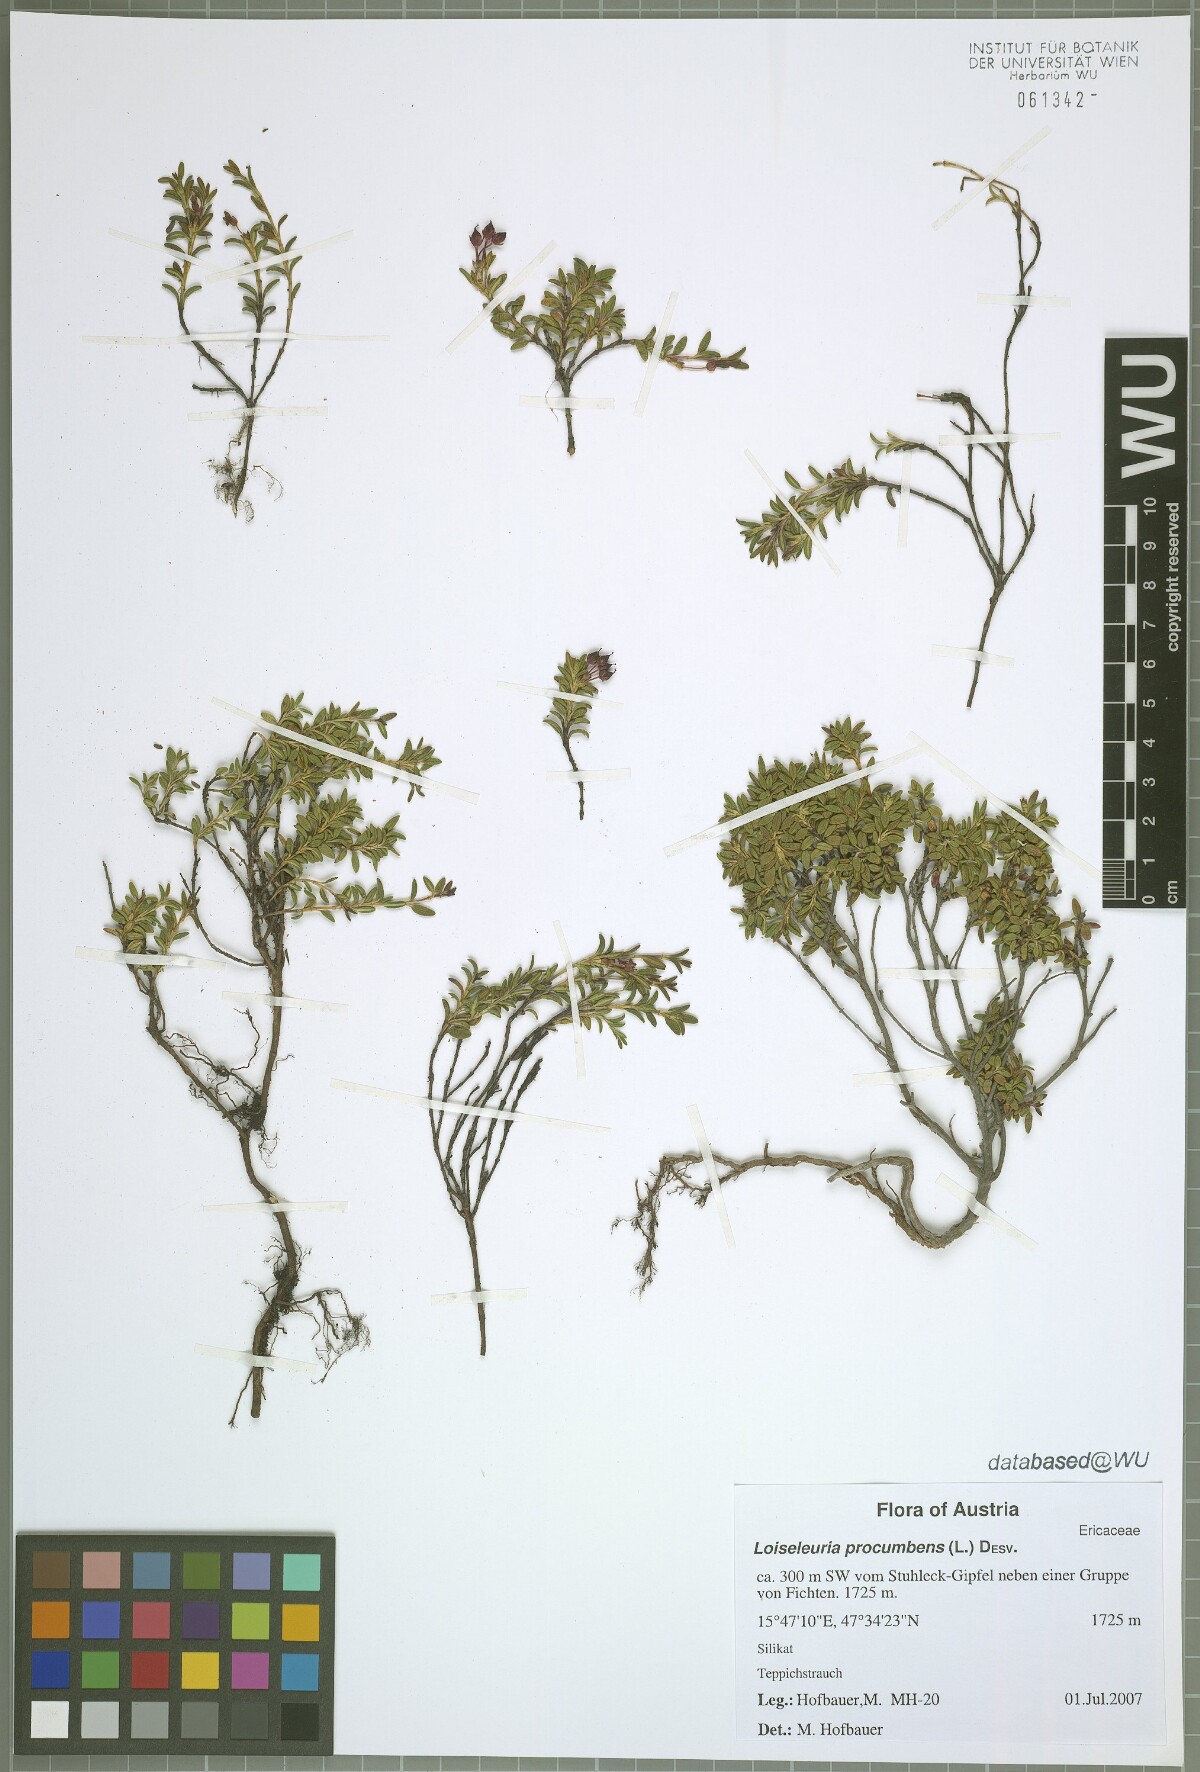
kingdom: Plantae
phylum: Tracheophyta
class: Magnoliopsida
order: Ericales
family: Ericaceae
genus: Kalmia
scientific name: Kalmia procumbens
